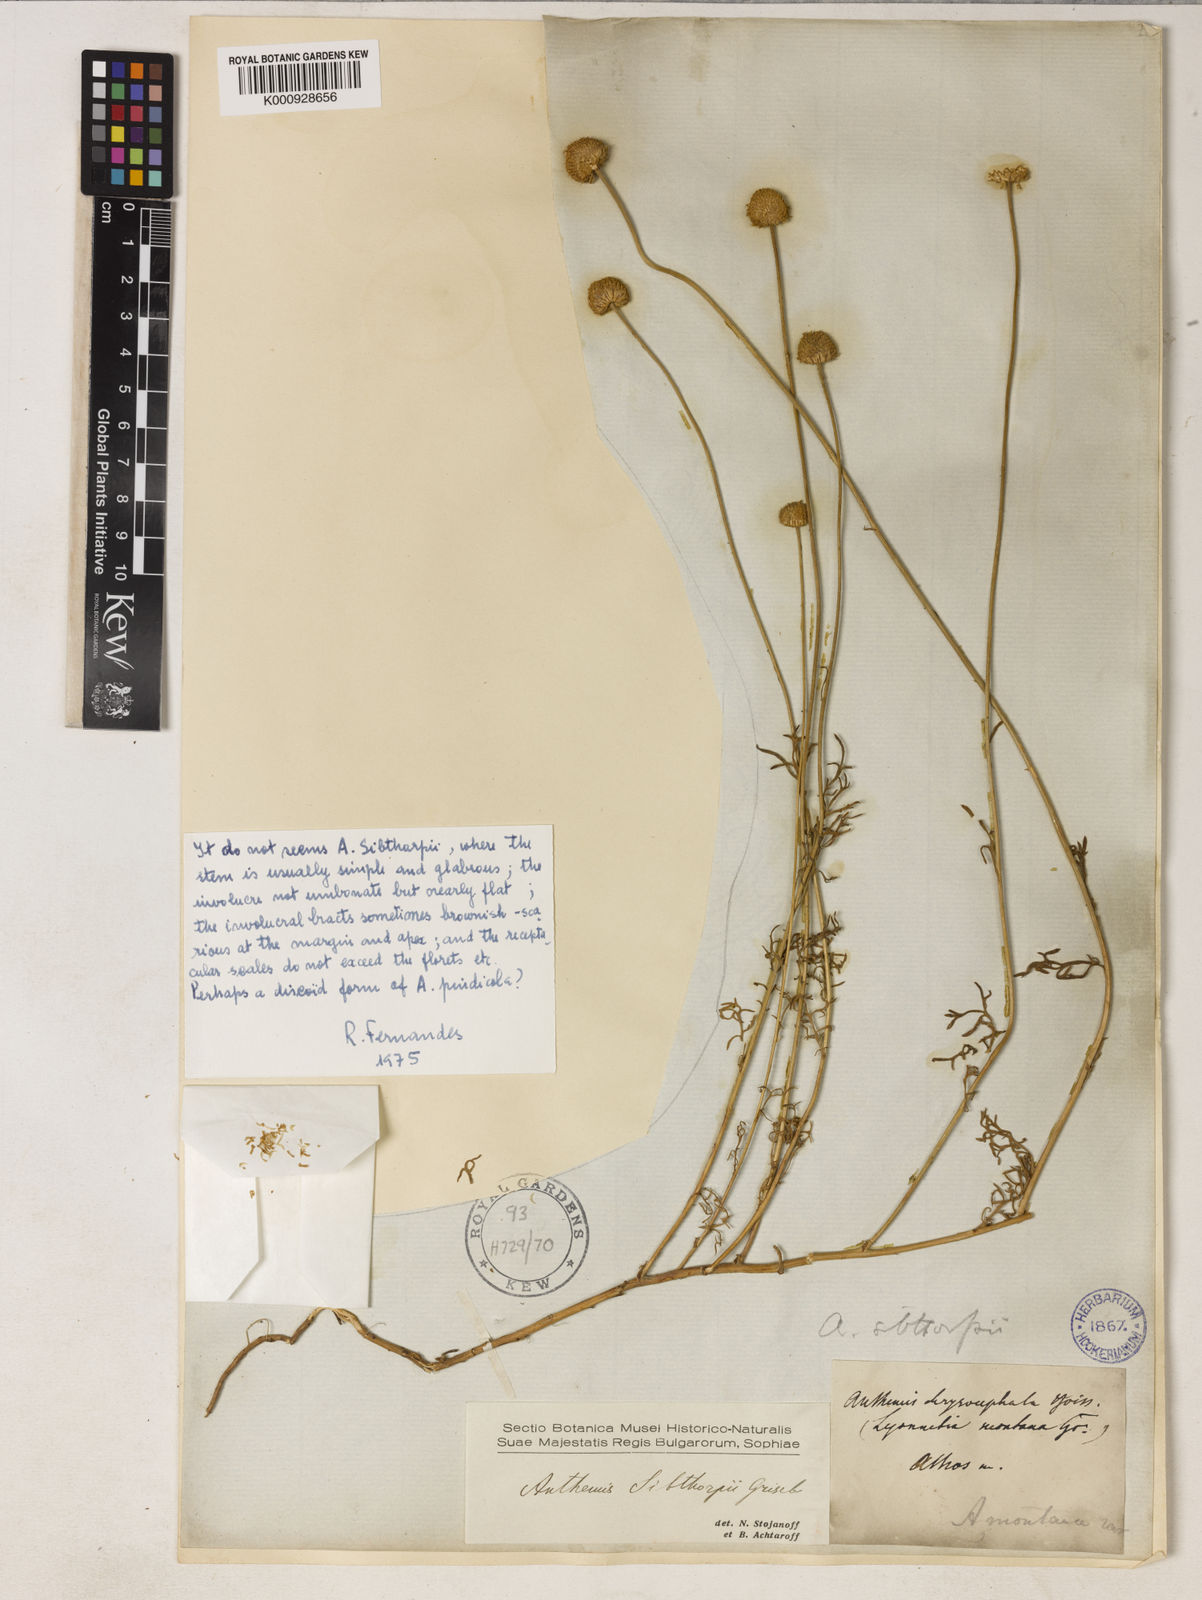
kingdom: Plantae
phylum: Tracheophyta
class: Magnoliopsida
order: Asterales
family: Asteraceae
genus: Anthemis
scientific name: Anthemis sibthorpii
